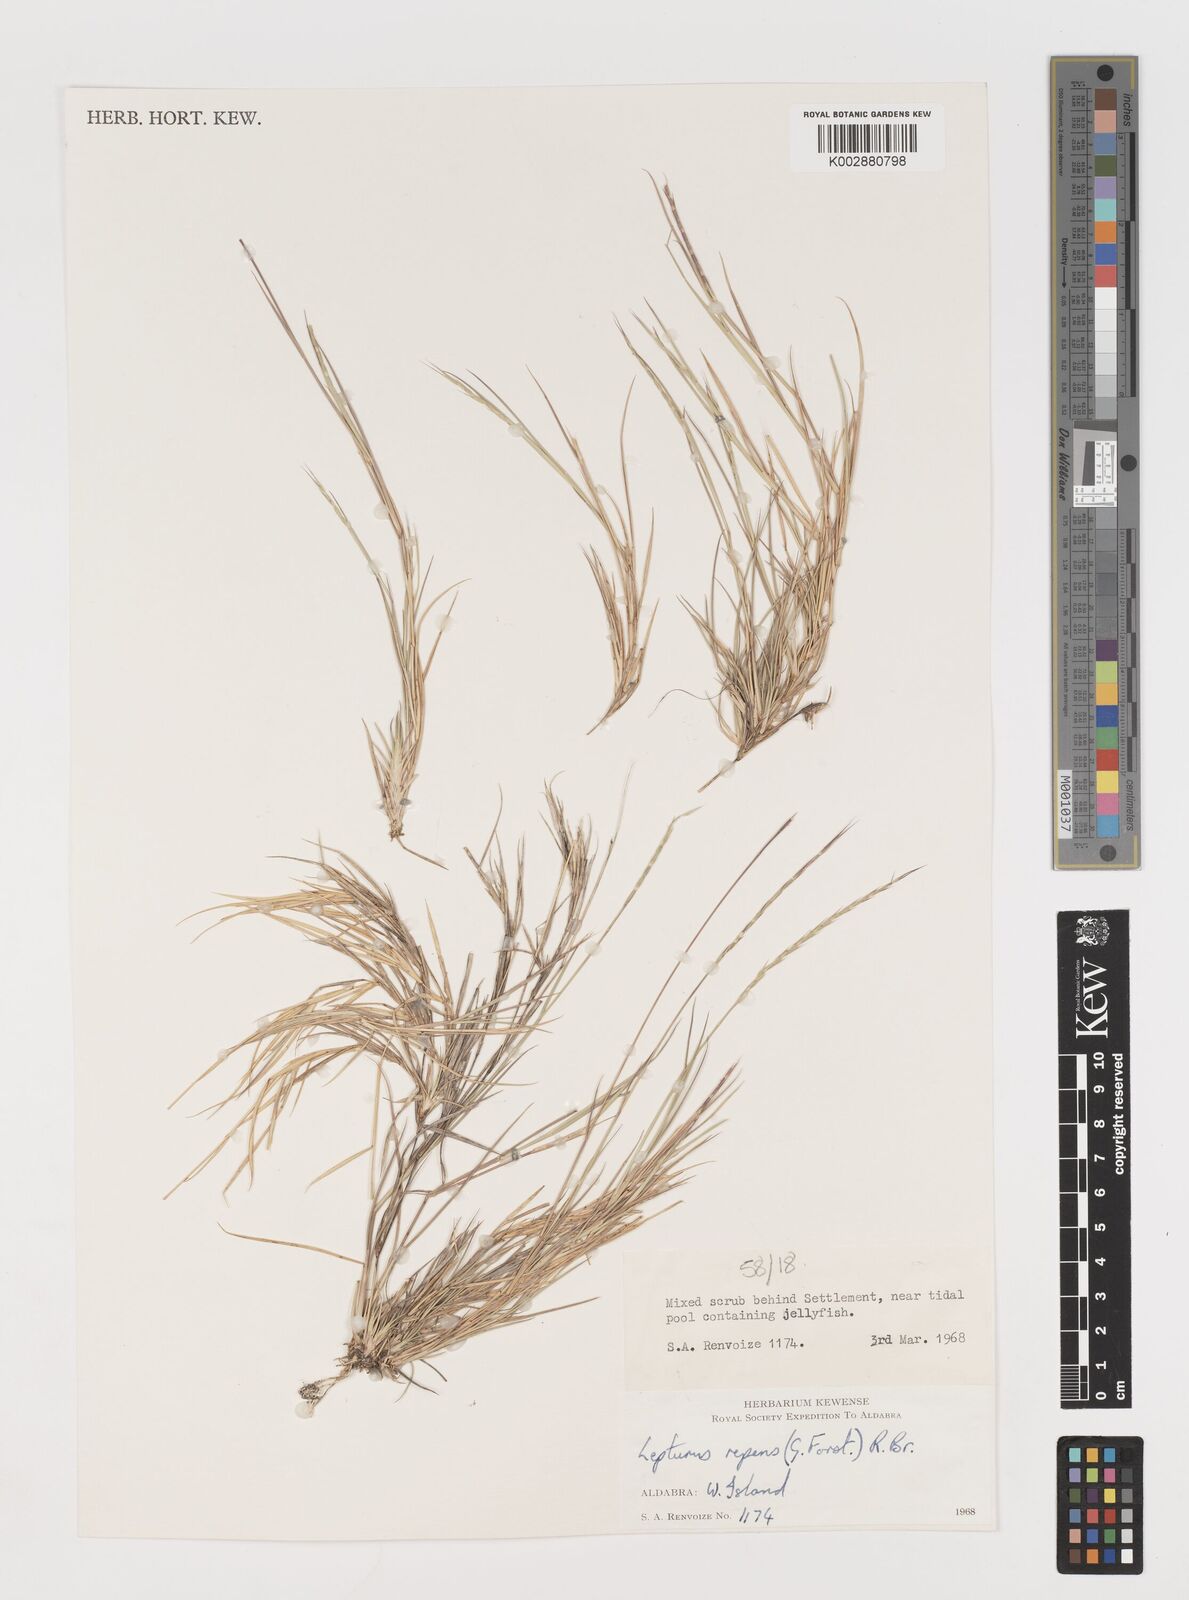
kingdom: Plantae
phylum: Tracheophyta
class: Liliopsida
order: Poales
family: Poaceae
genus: Lepturus
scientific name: Lepturus repens
